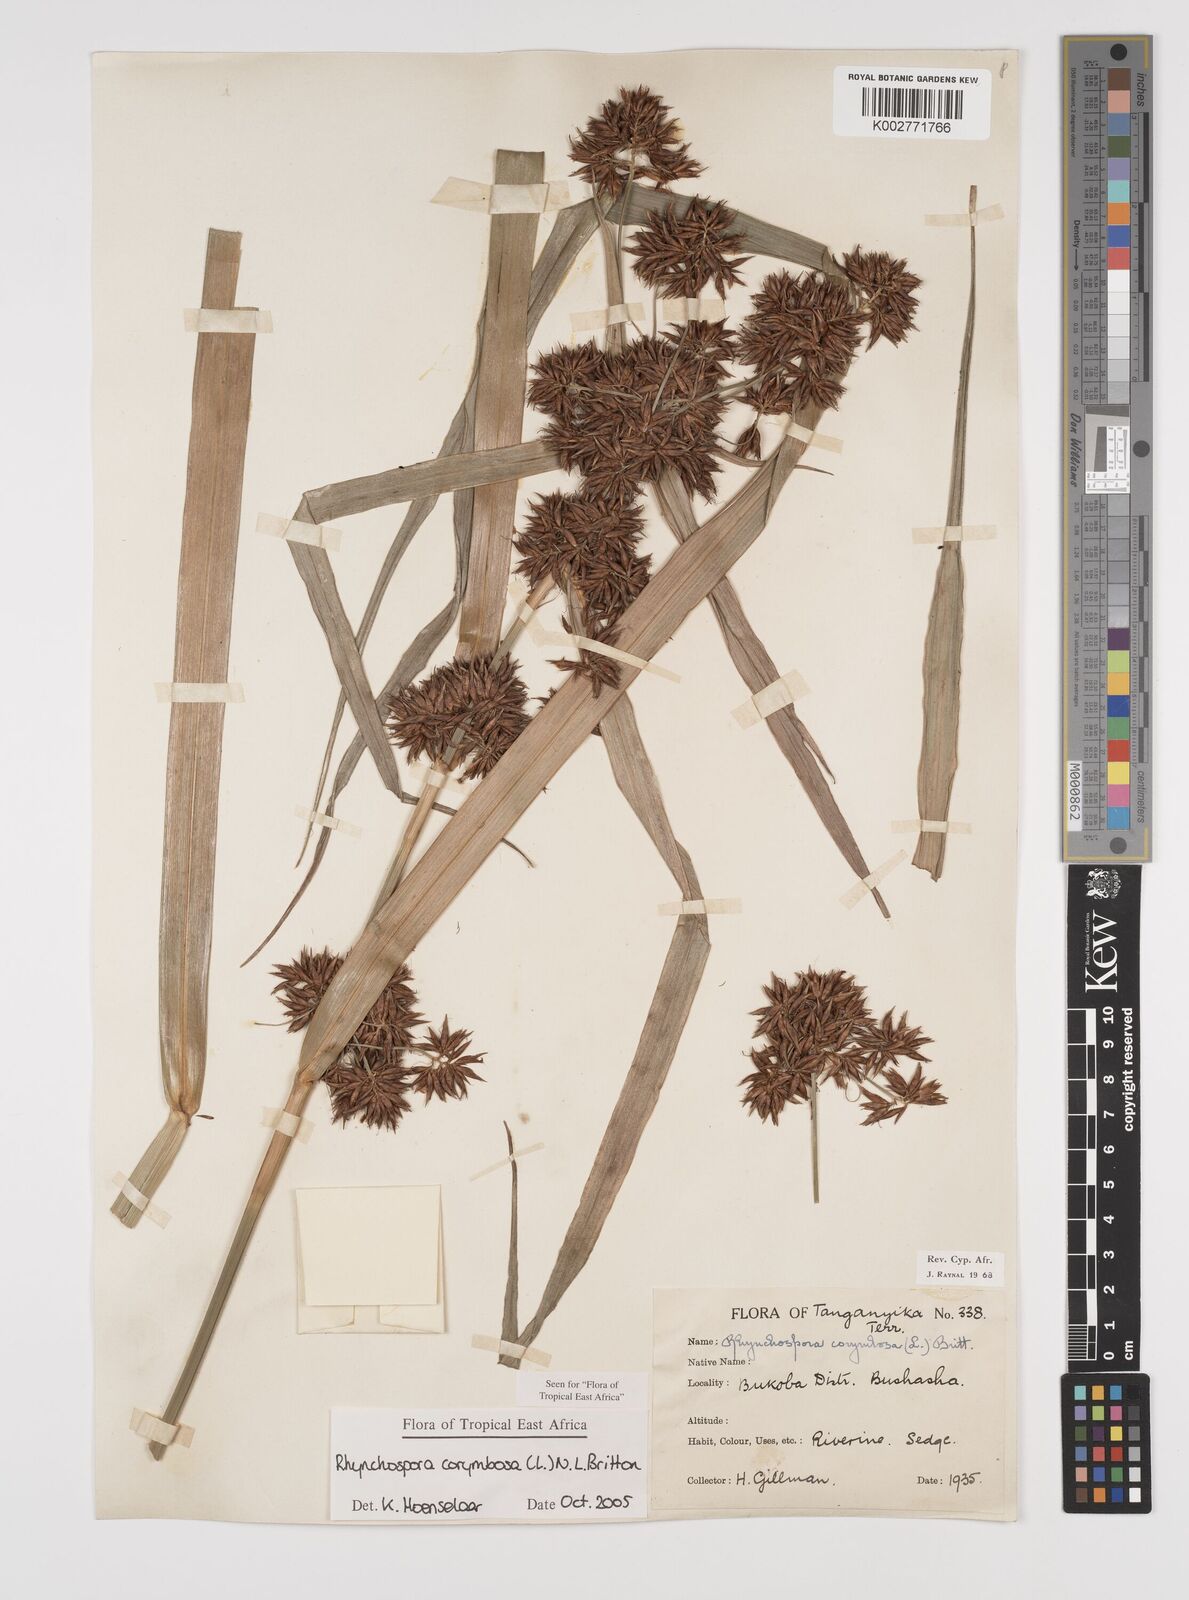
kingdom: Plantae
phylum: Tracheophyta
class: Liliopsida
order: Poales
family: Cyperaceae
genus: Rhynchospora
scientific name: Rhynchospora corymbosa
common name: Golden beak sedge
